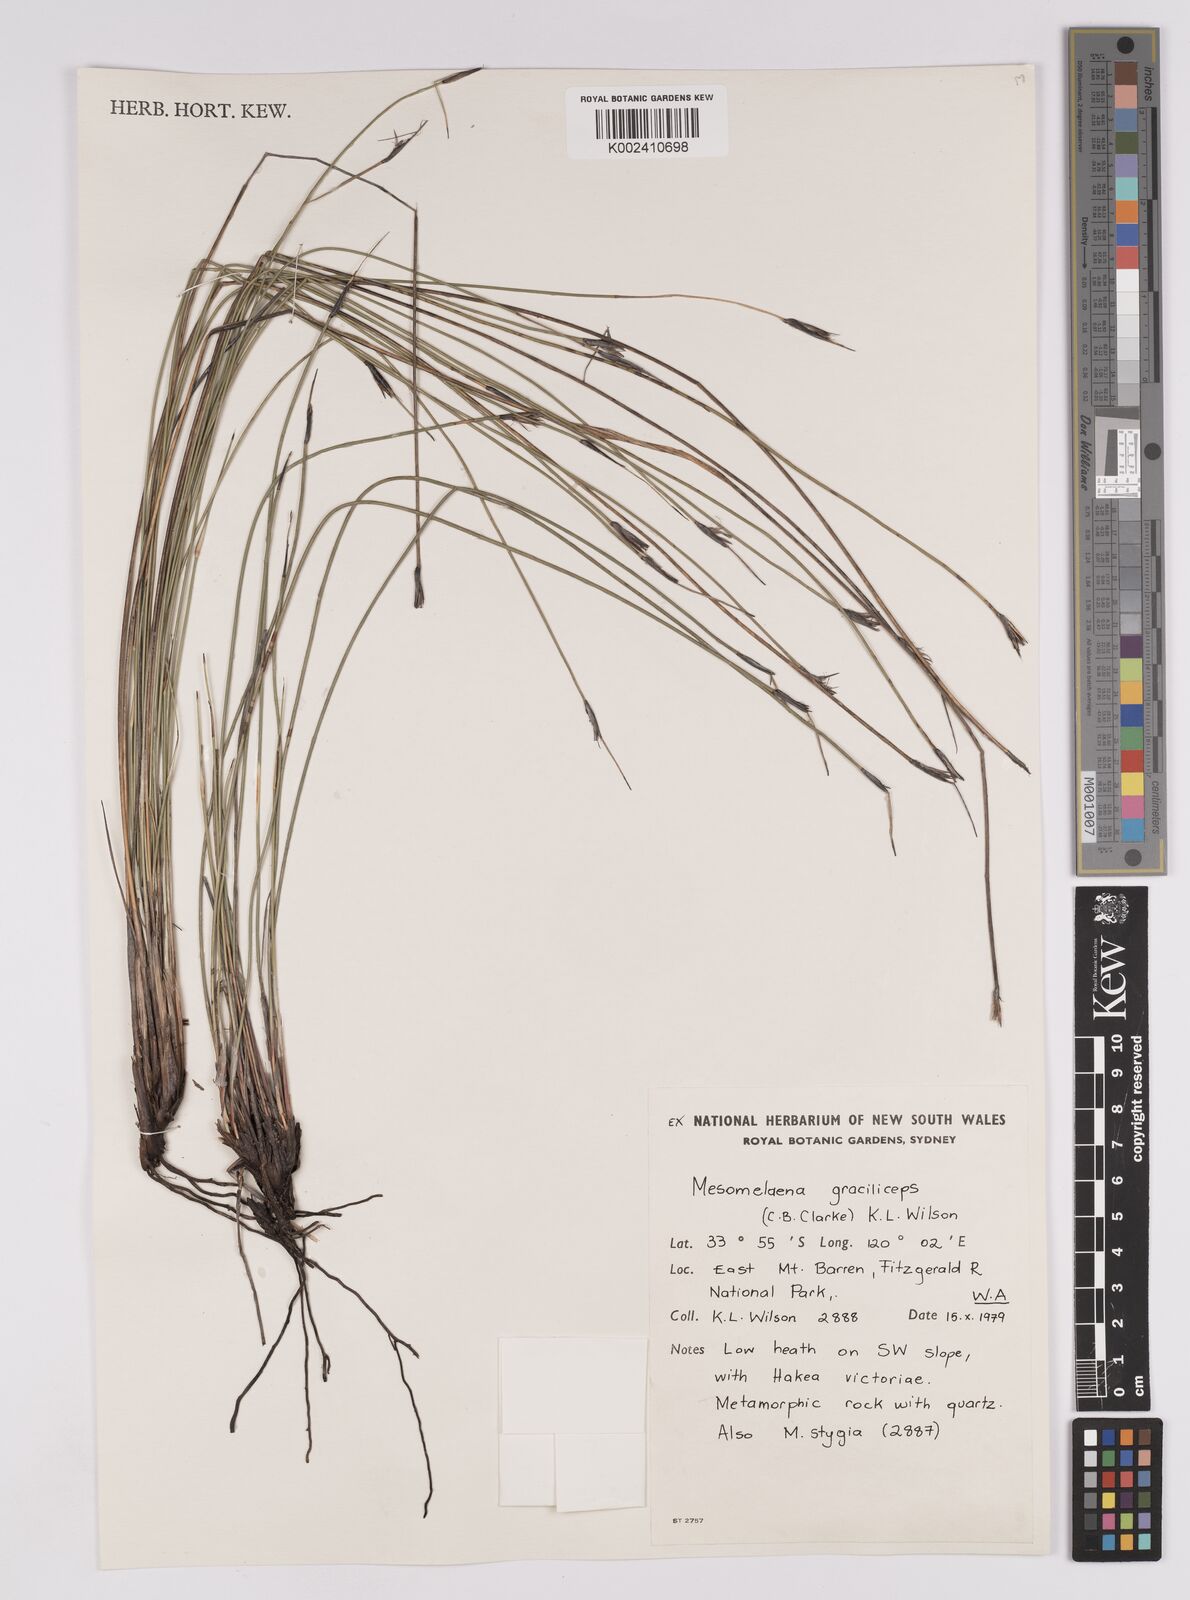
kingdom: Plantae
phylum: Tracheophyta
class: Liliopsida
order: Poales
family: Cyperaceae
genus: Mesomelaena
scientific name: Mesomelaena graciliceps
